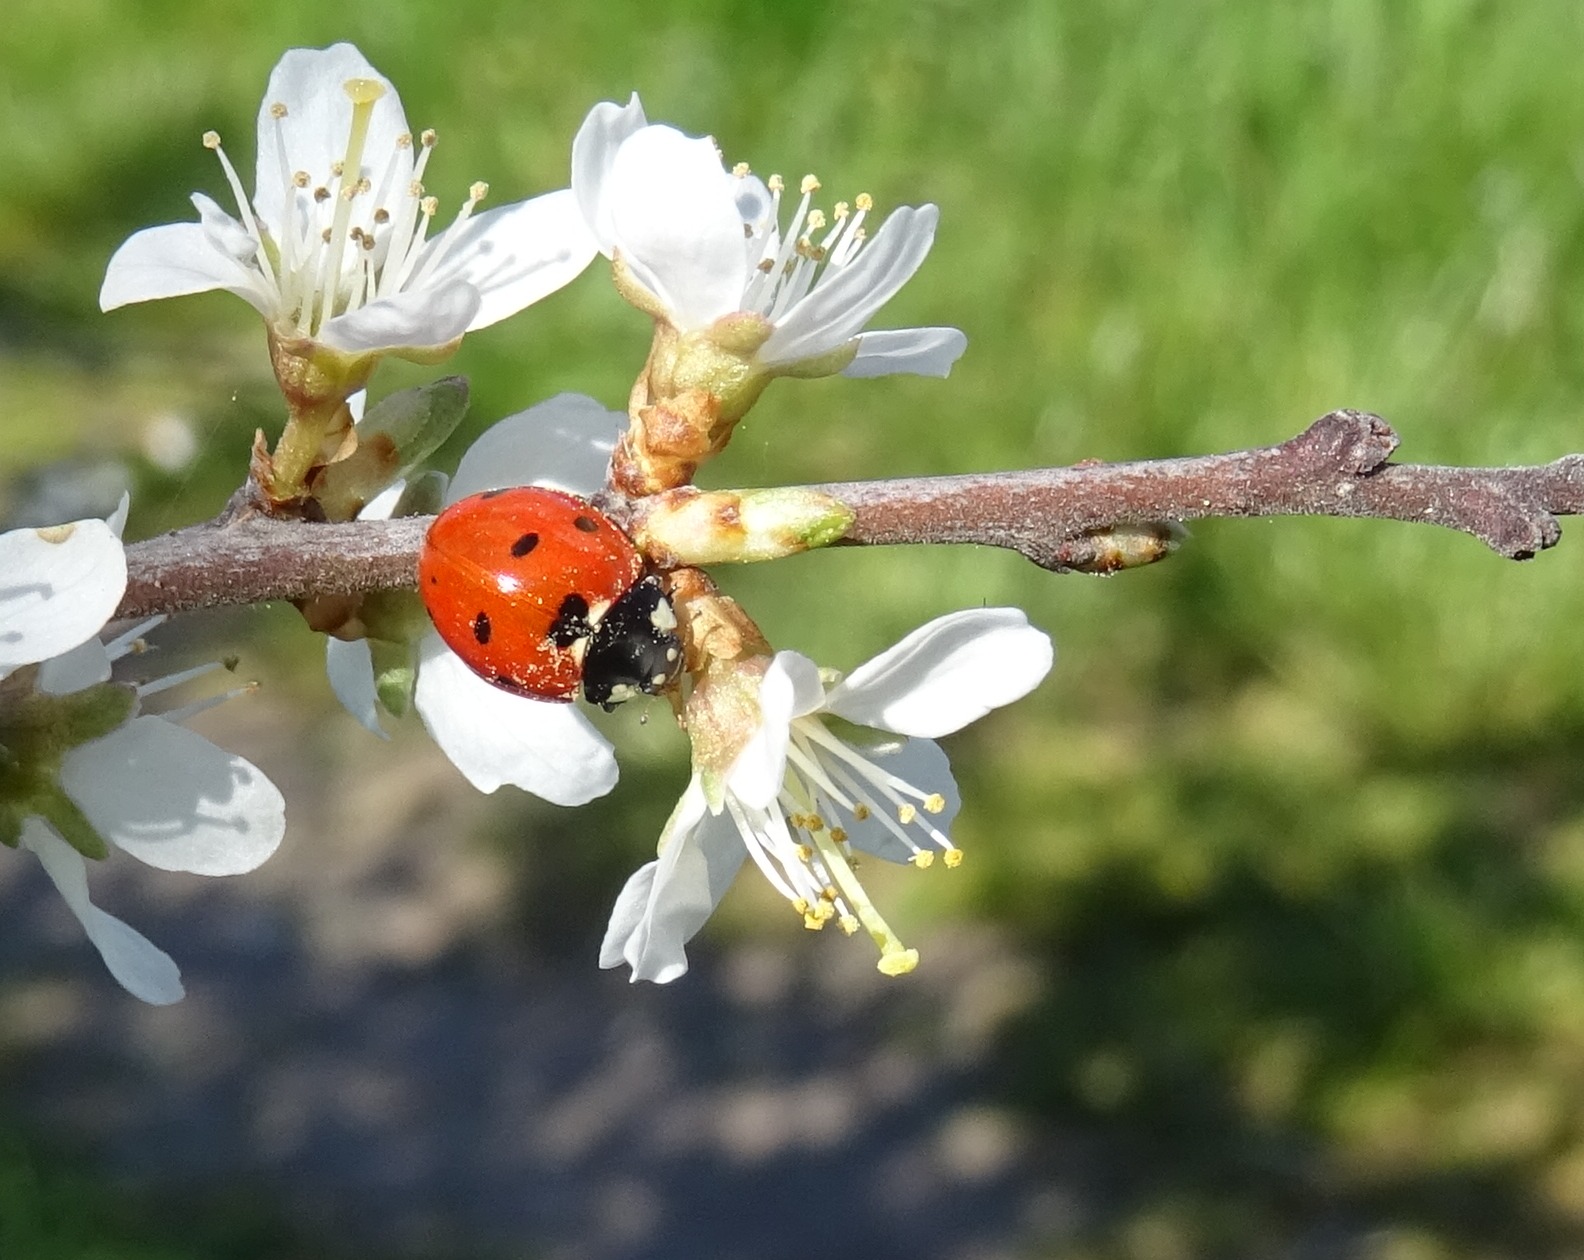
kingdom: Animalia
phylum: Arthropoda
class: Insecta
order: Coleoptera
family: Coccinellidae
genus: Coccinella
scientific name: Coccinella septempunctata
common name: Syvplettet mariehøne
